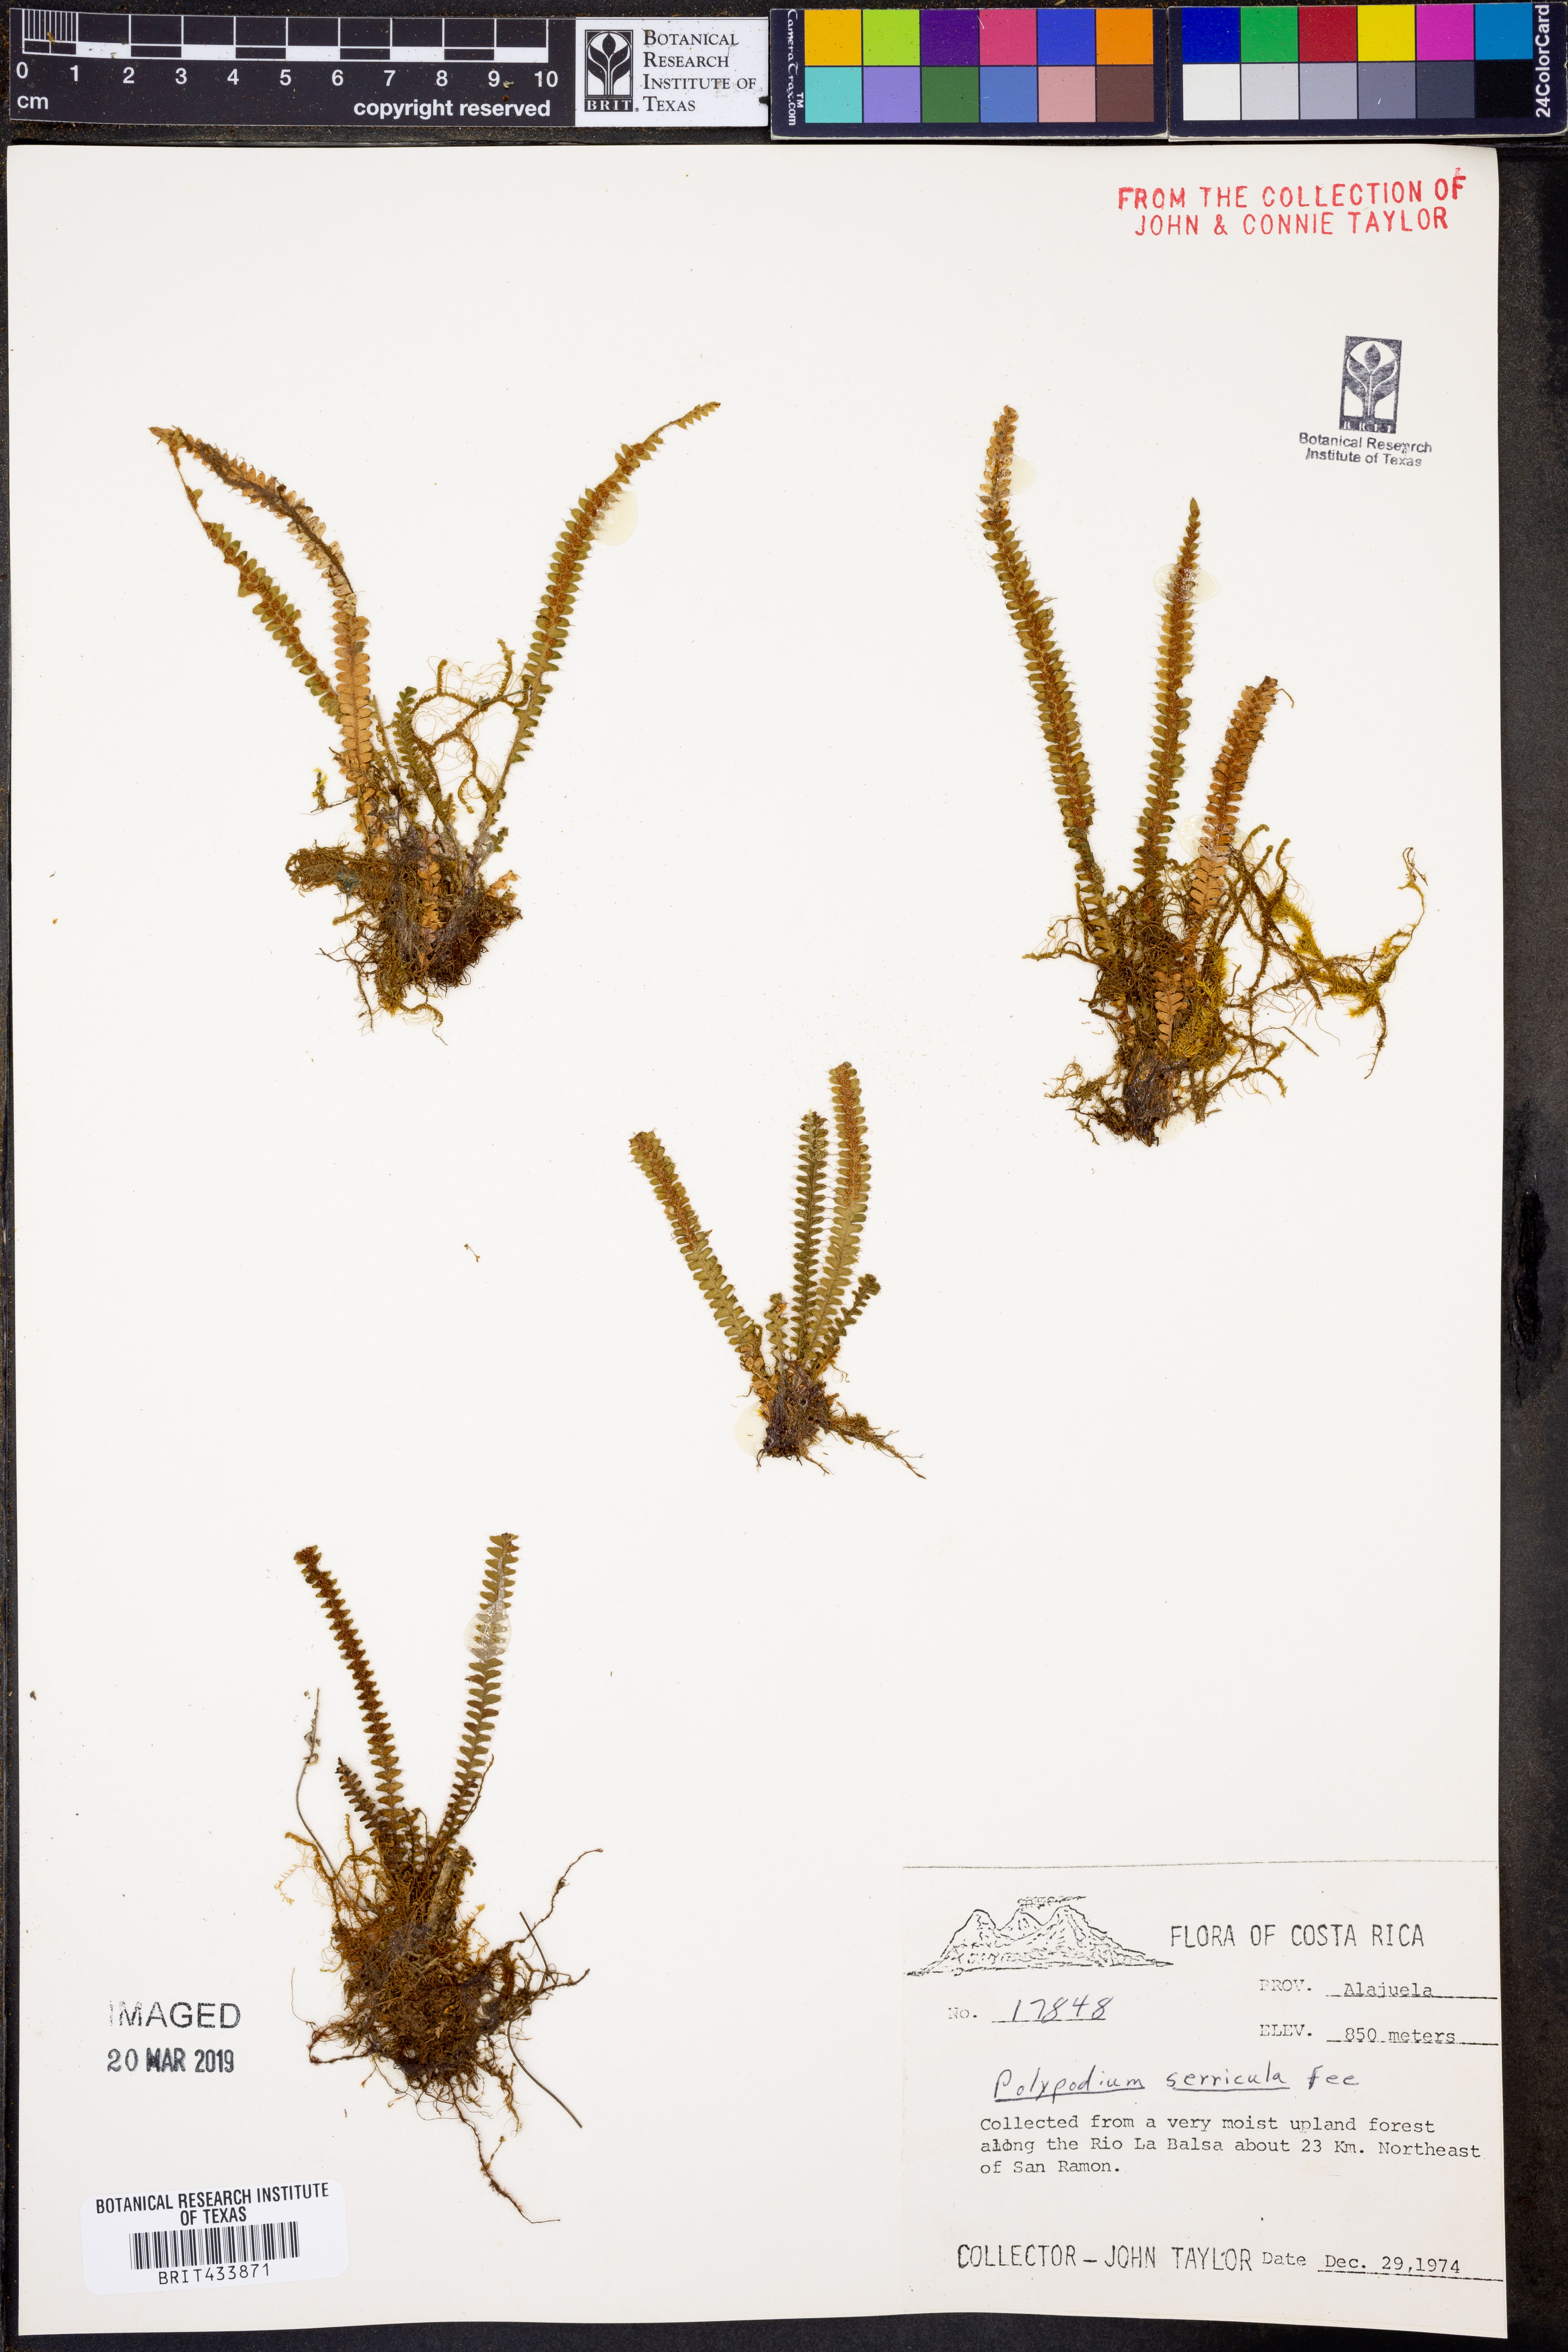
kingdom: Plantae
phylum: Tracheophyta
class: Polypodiopsida
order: Polypodiales
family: Polypodiaceae
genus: Moranopteris
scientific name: Moranopteris serricula
